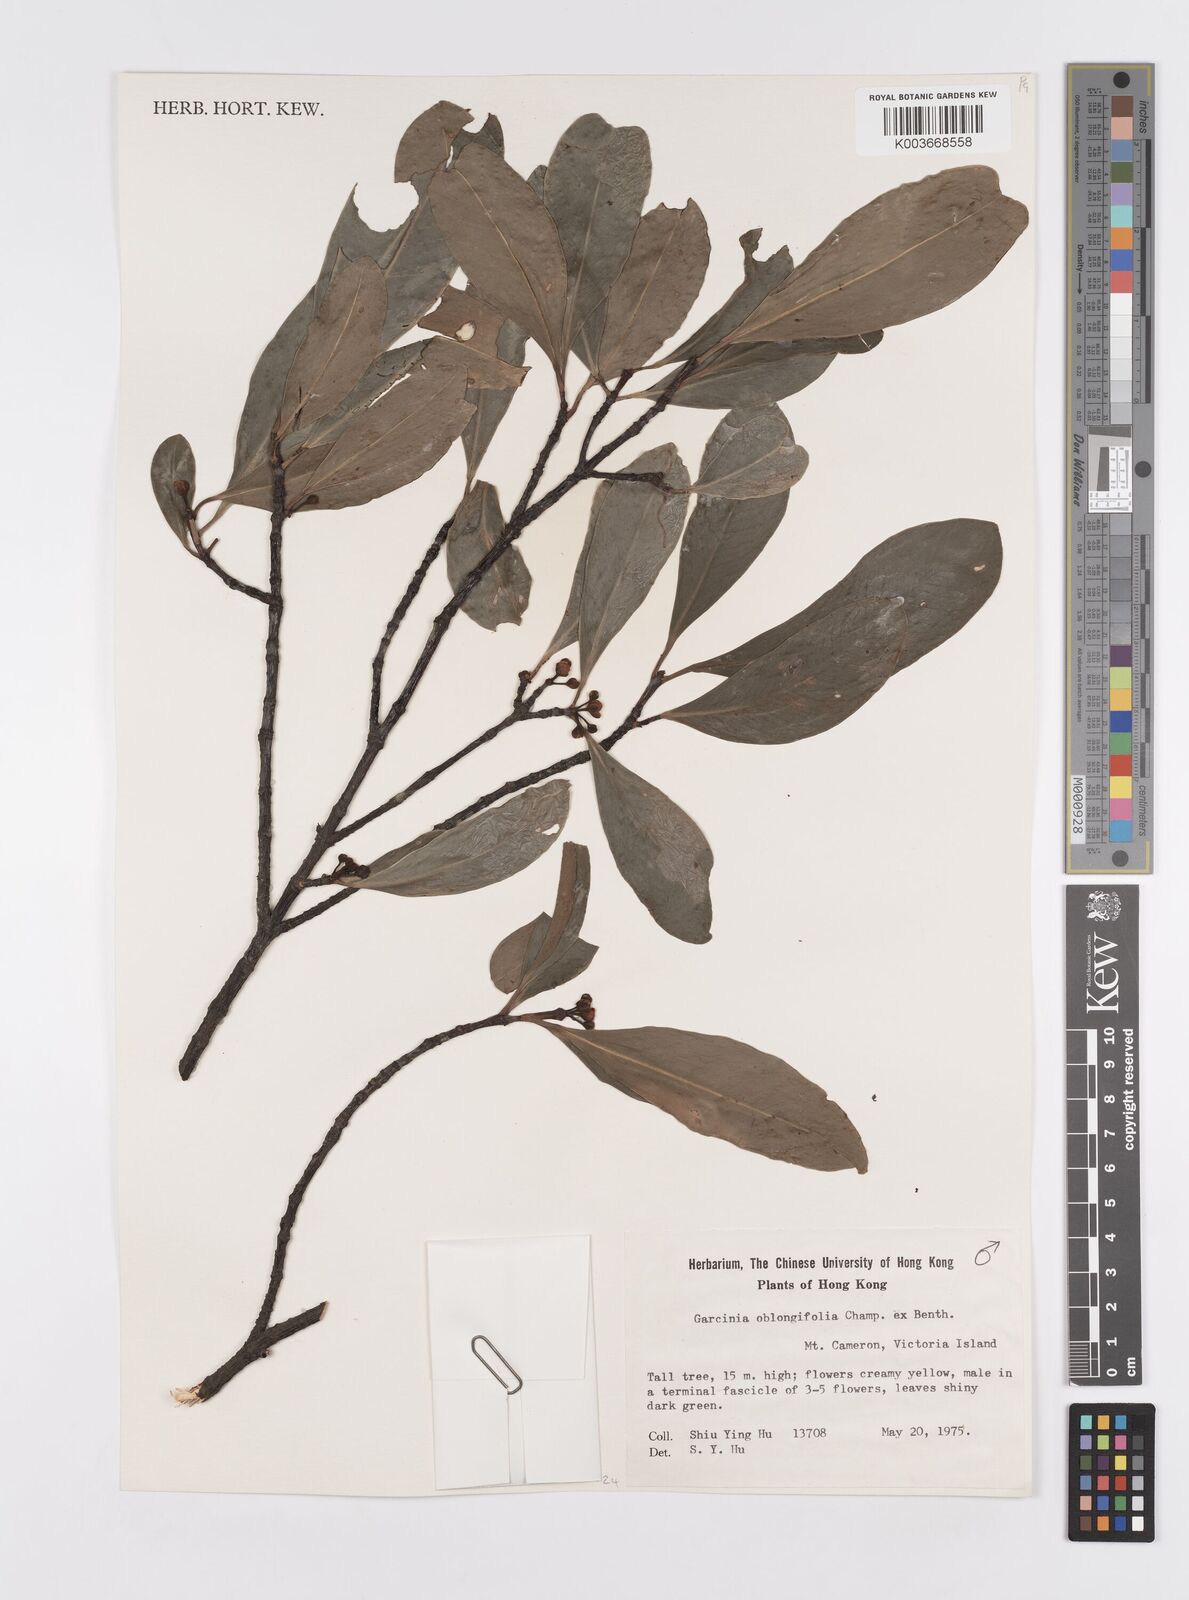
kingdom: Plantae
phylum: Tracheophyta
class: Magnoliopsida
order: Malpighiales
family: Clusiaceae
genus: Garcinia
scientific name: Garcinia oblongifolia
